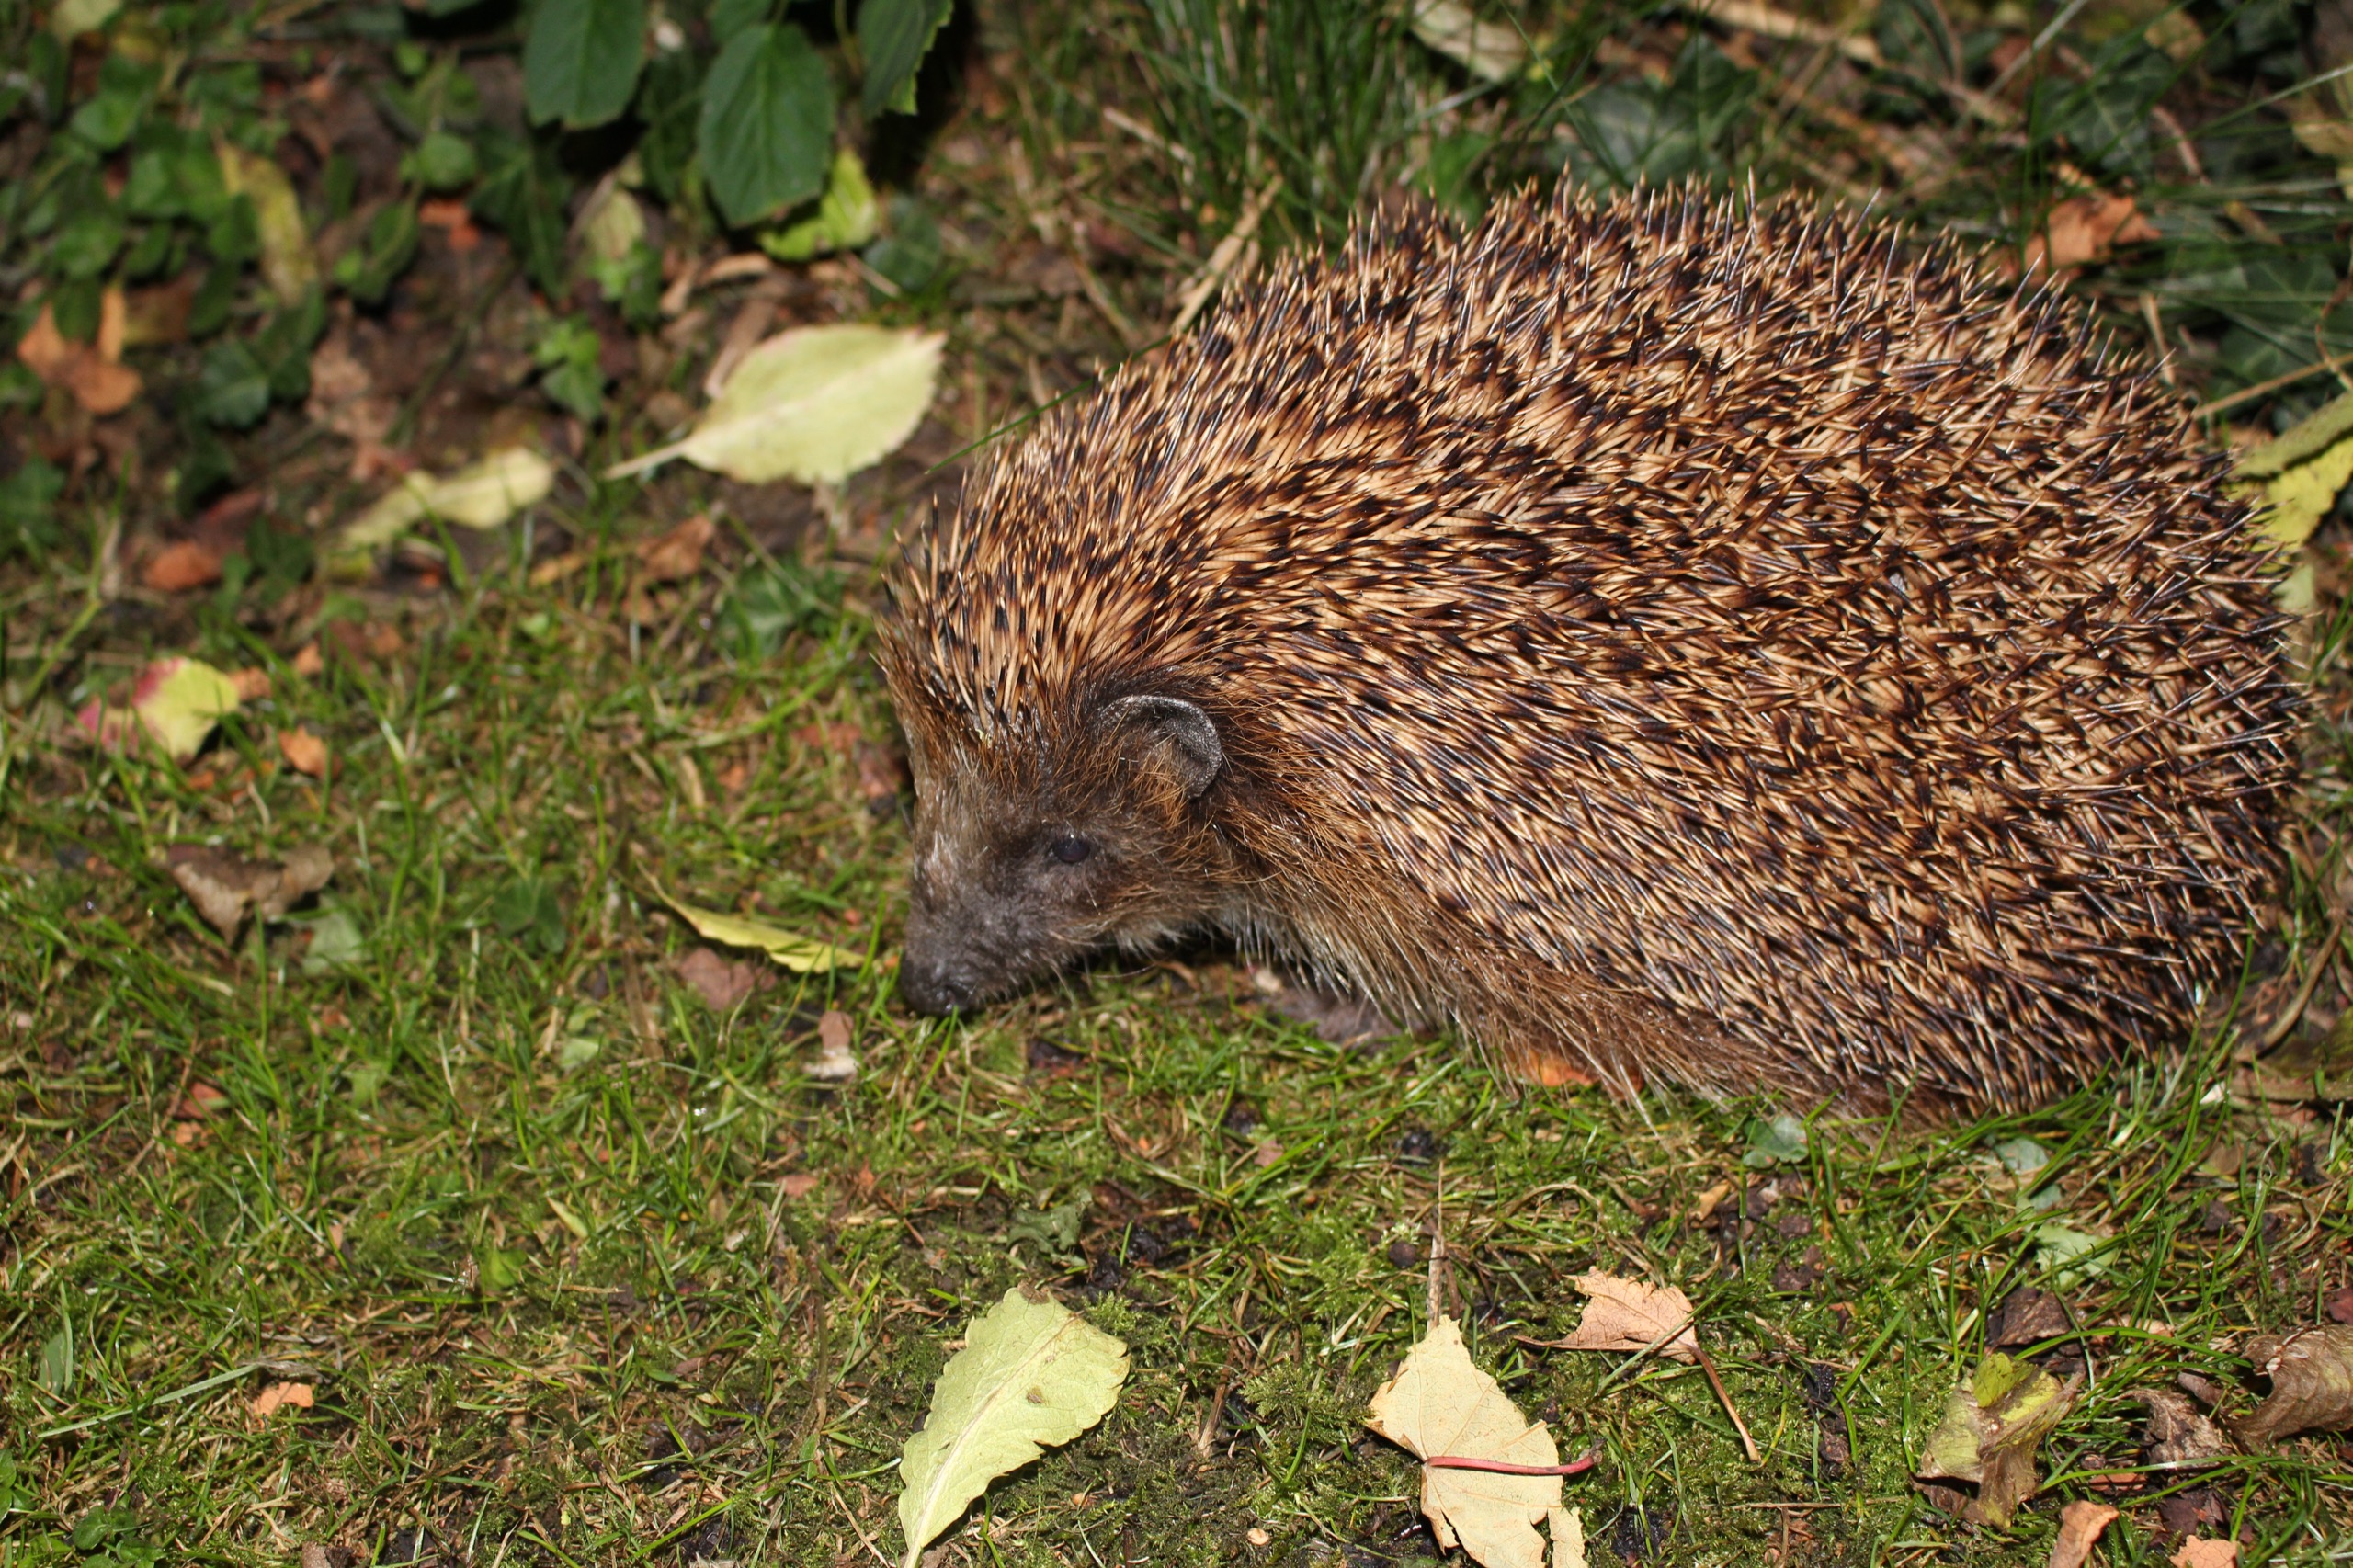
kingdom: Animalia
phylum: Chordata
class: Mammalia
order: Erinaceomorpha
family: Erinaceidae
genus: Erinaceus
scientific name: Erinaceus europaeus
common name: Pindsvin
